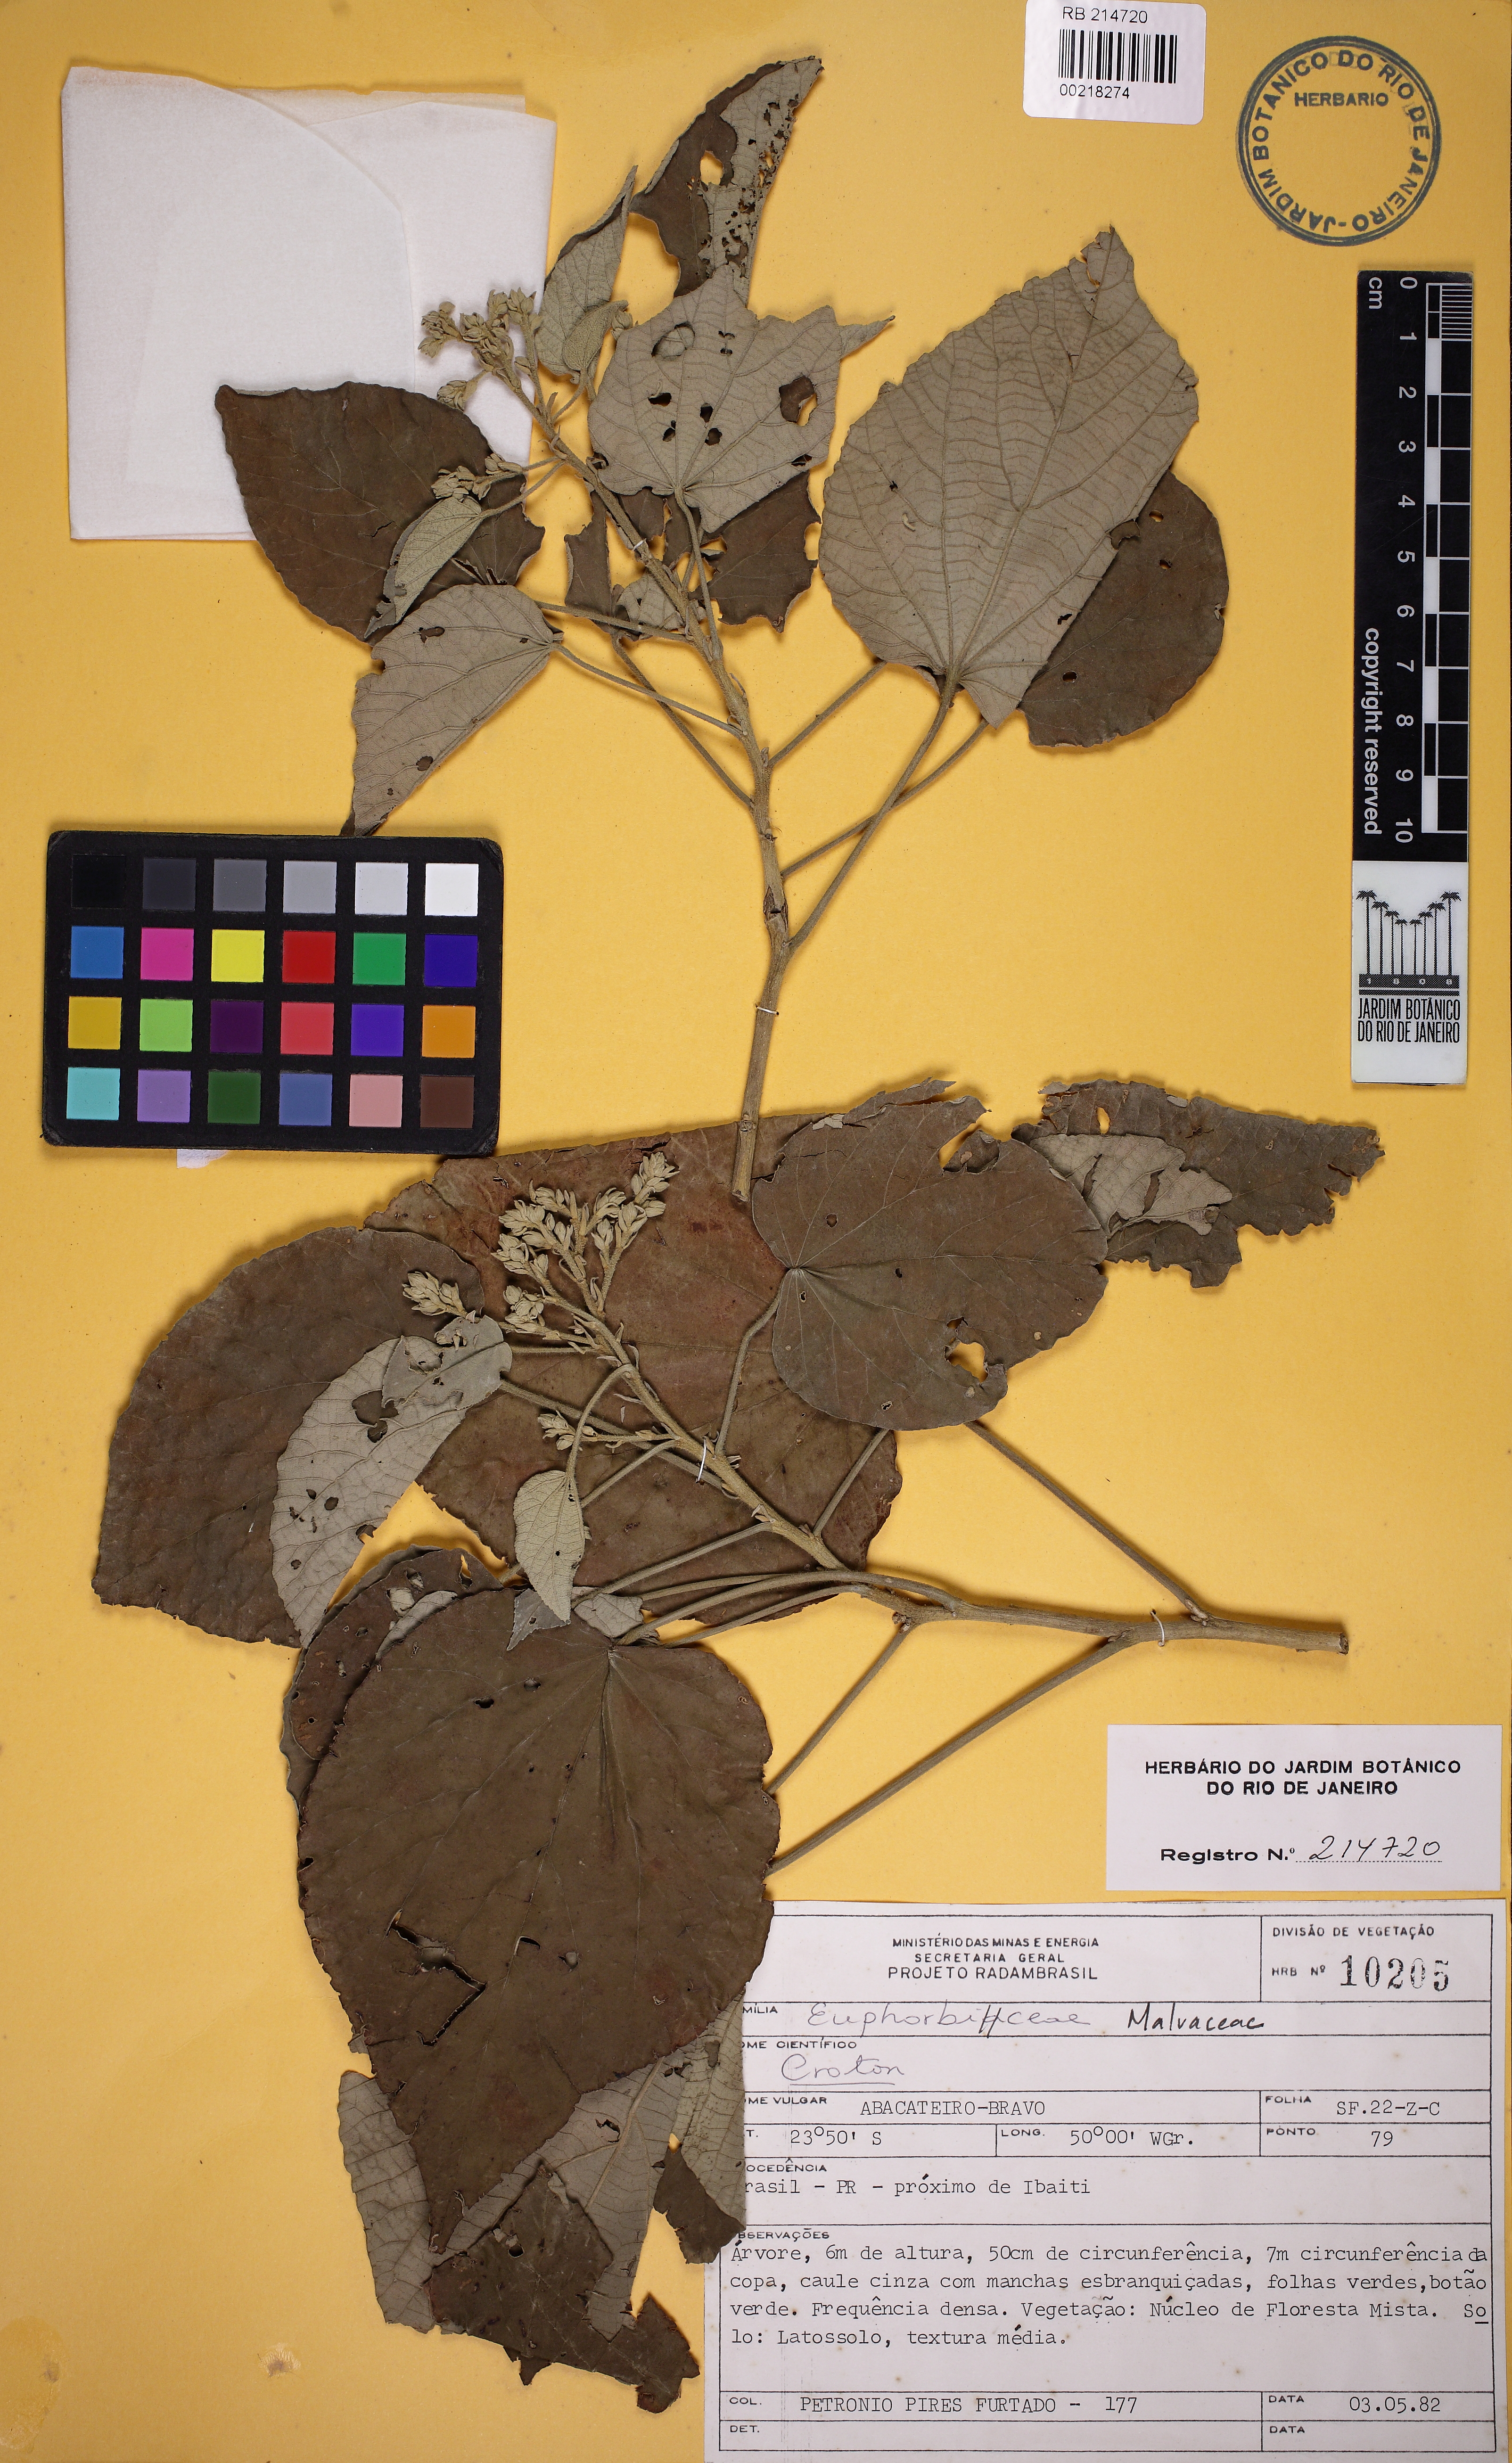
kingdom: Plantae
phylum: Tracheophyta
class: Magnoliopsida
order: Malvales
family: Malvaceae
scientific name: Malvaceae
